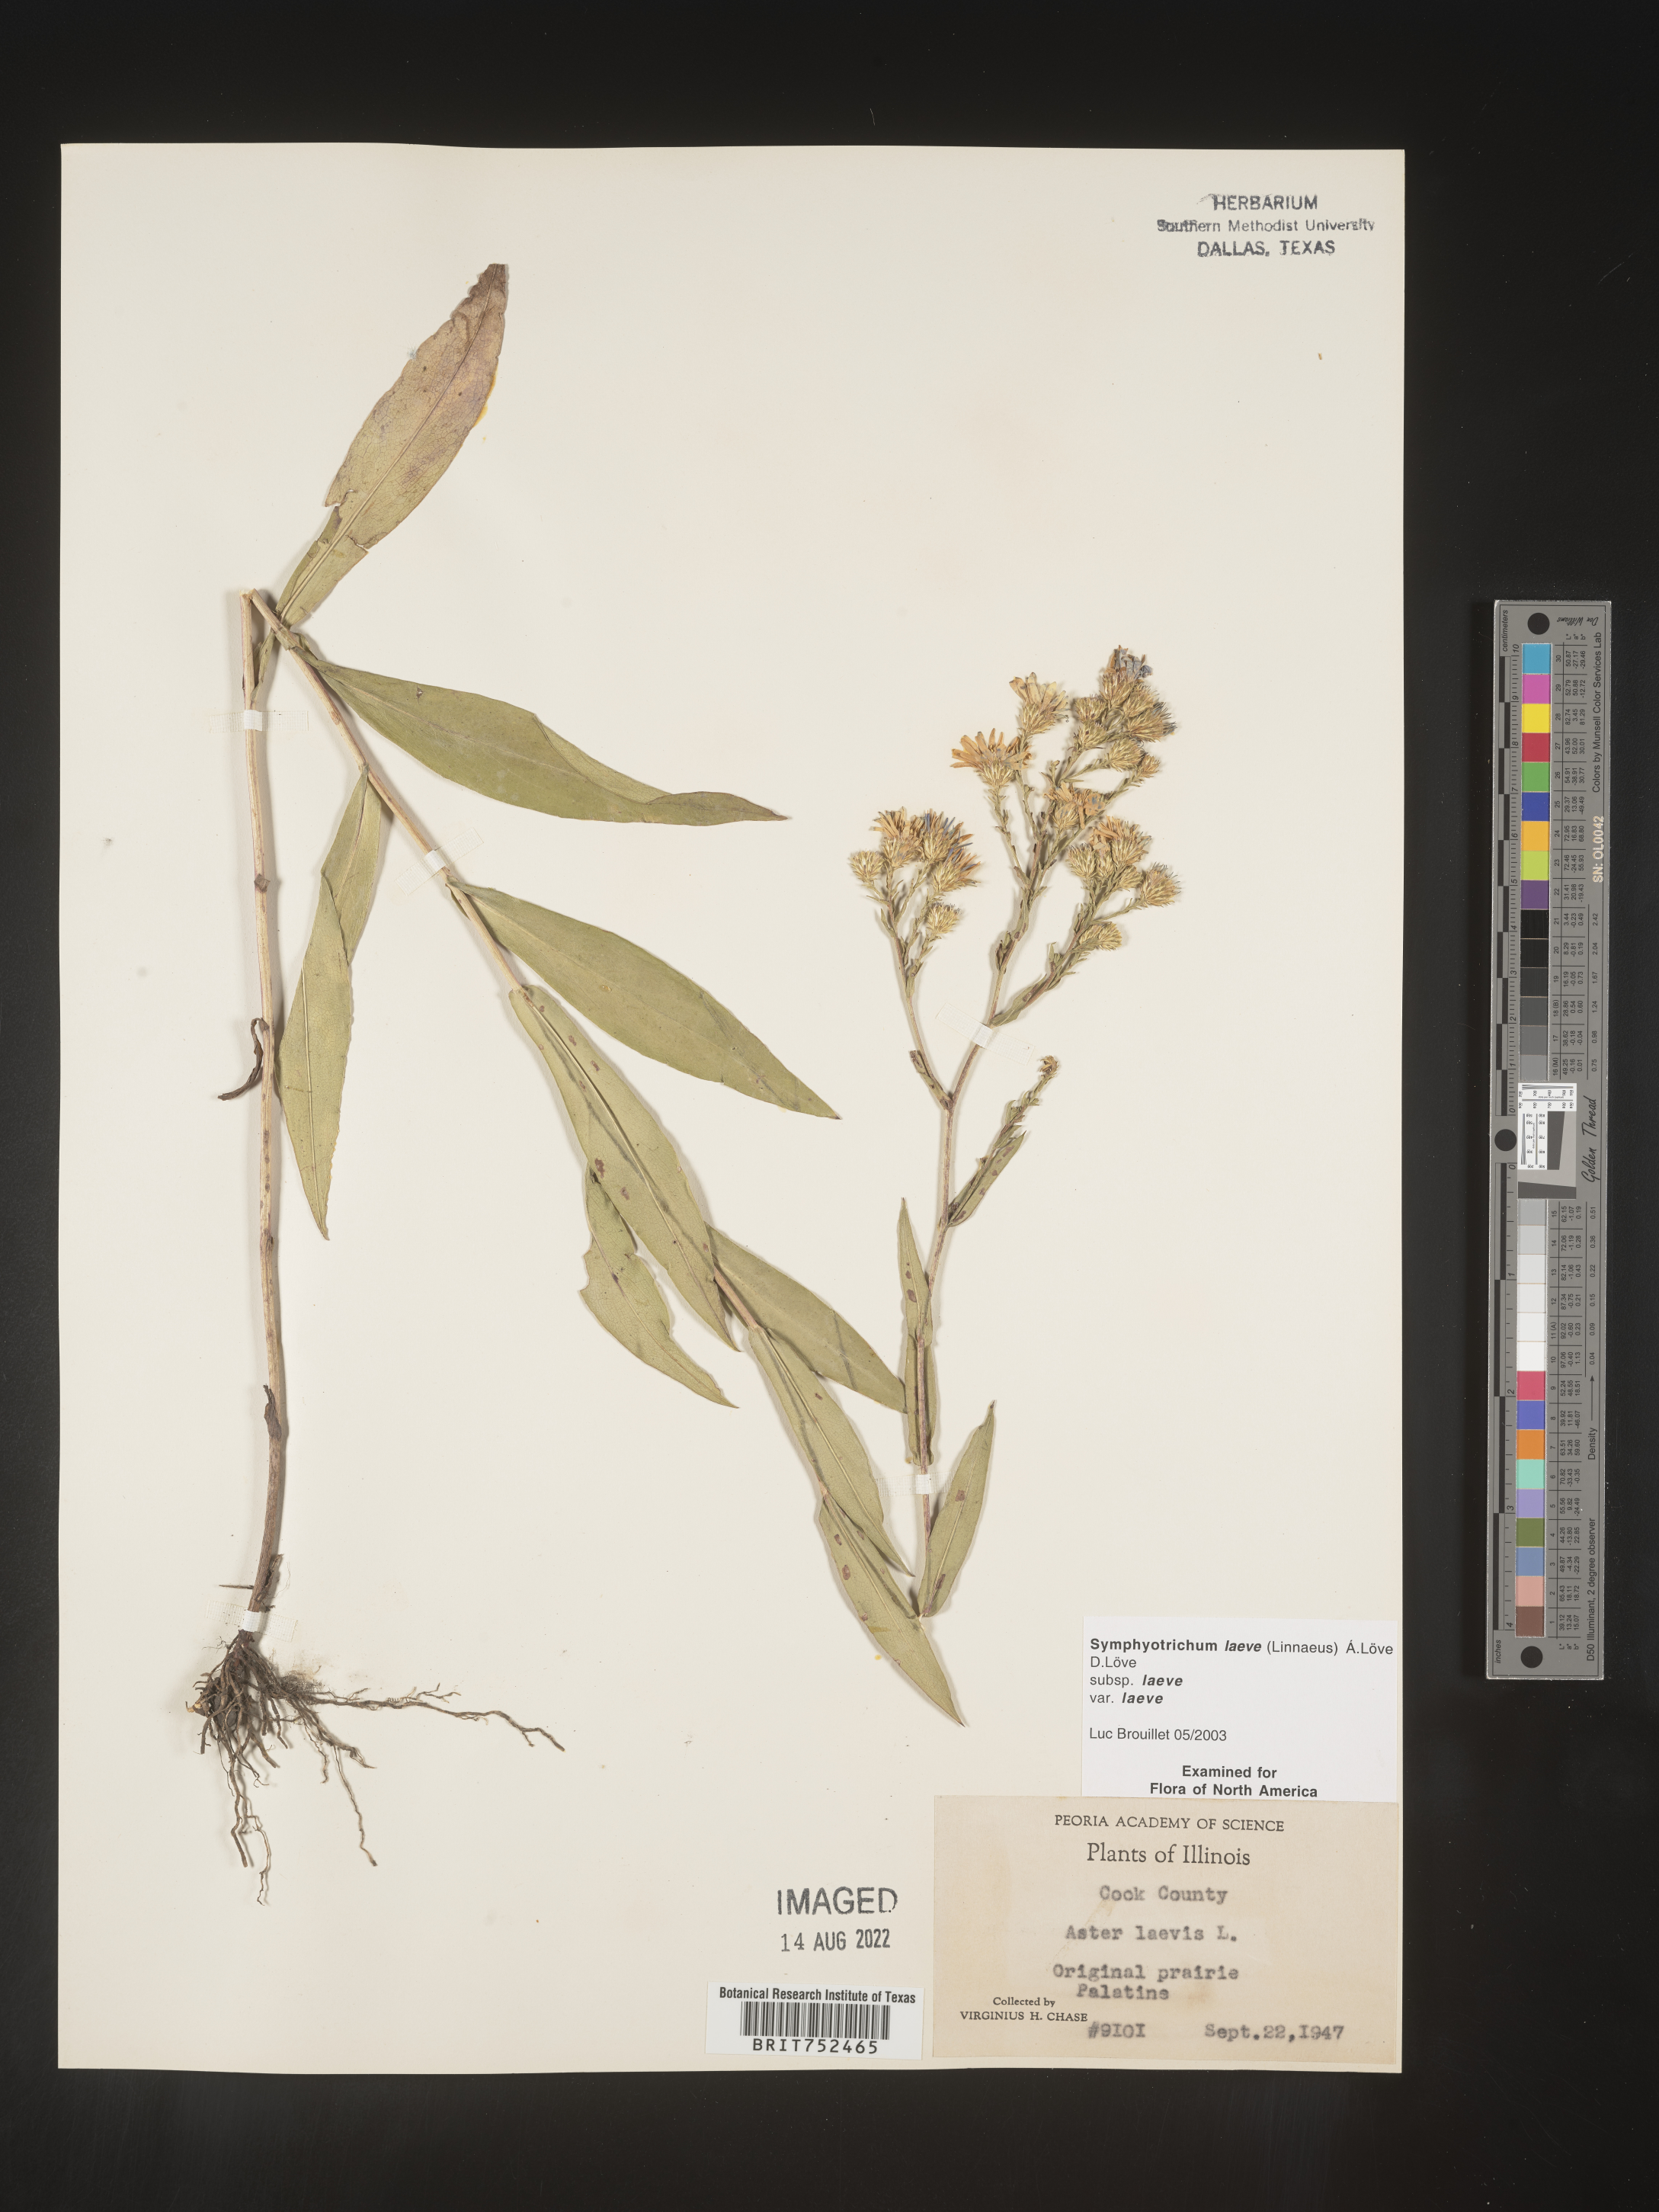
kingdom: Plantae
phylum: Tracheophyta
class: Magnoliopsida
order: Asterales
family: Asteraceae
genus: Symphyotrichum
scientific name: Symphyotrichum laeve
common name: Glaucous aster
